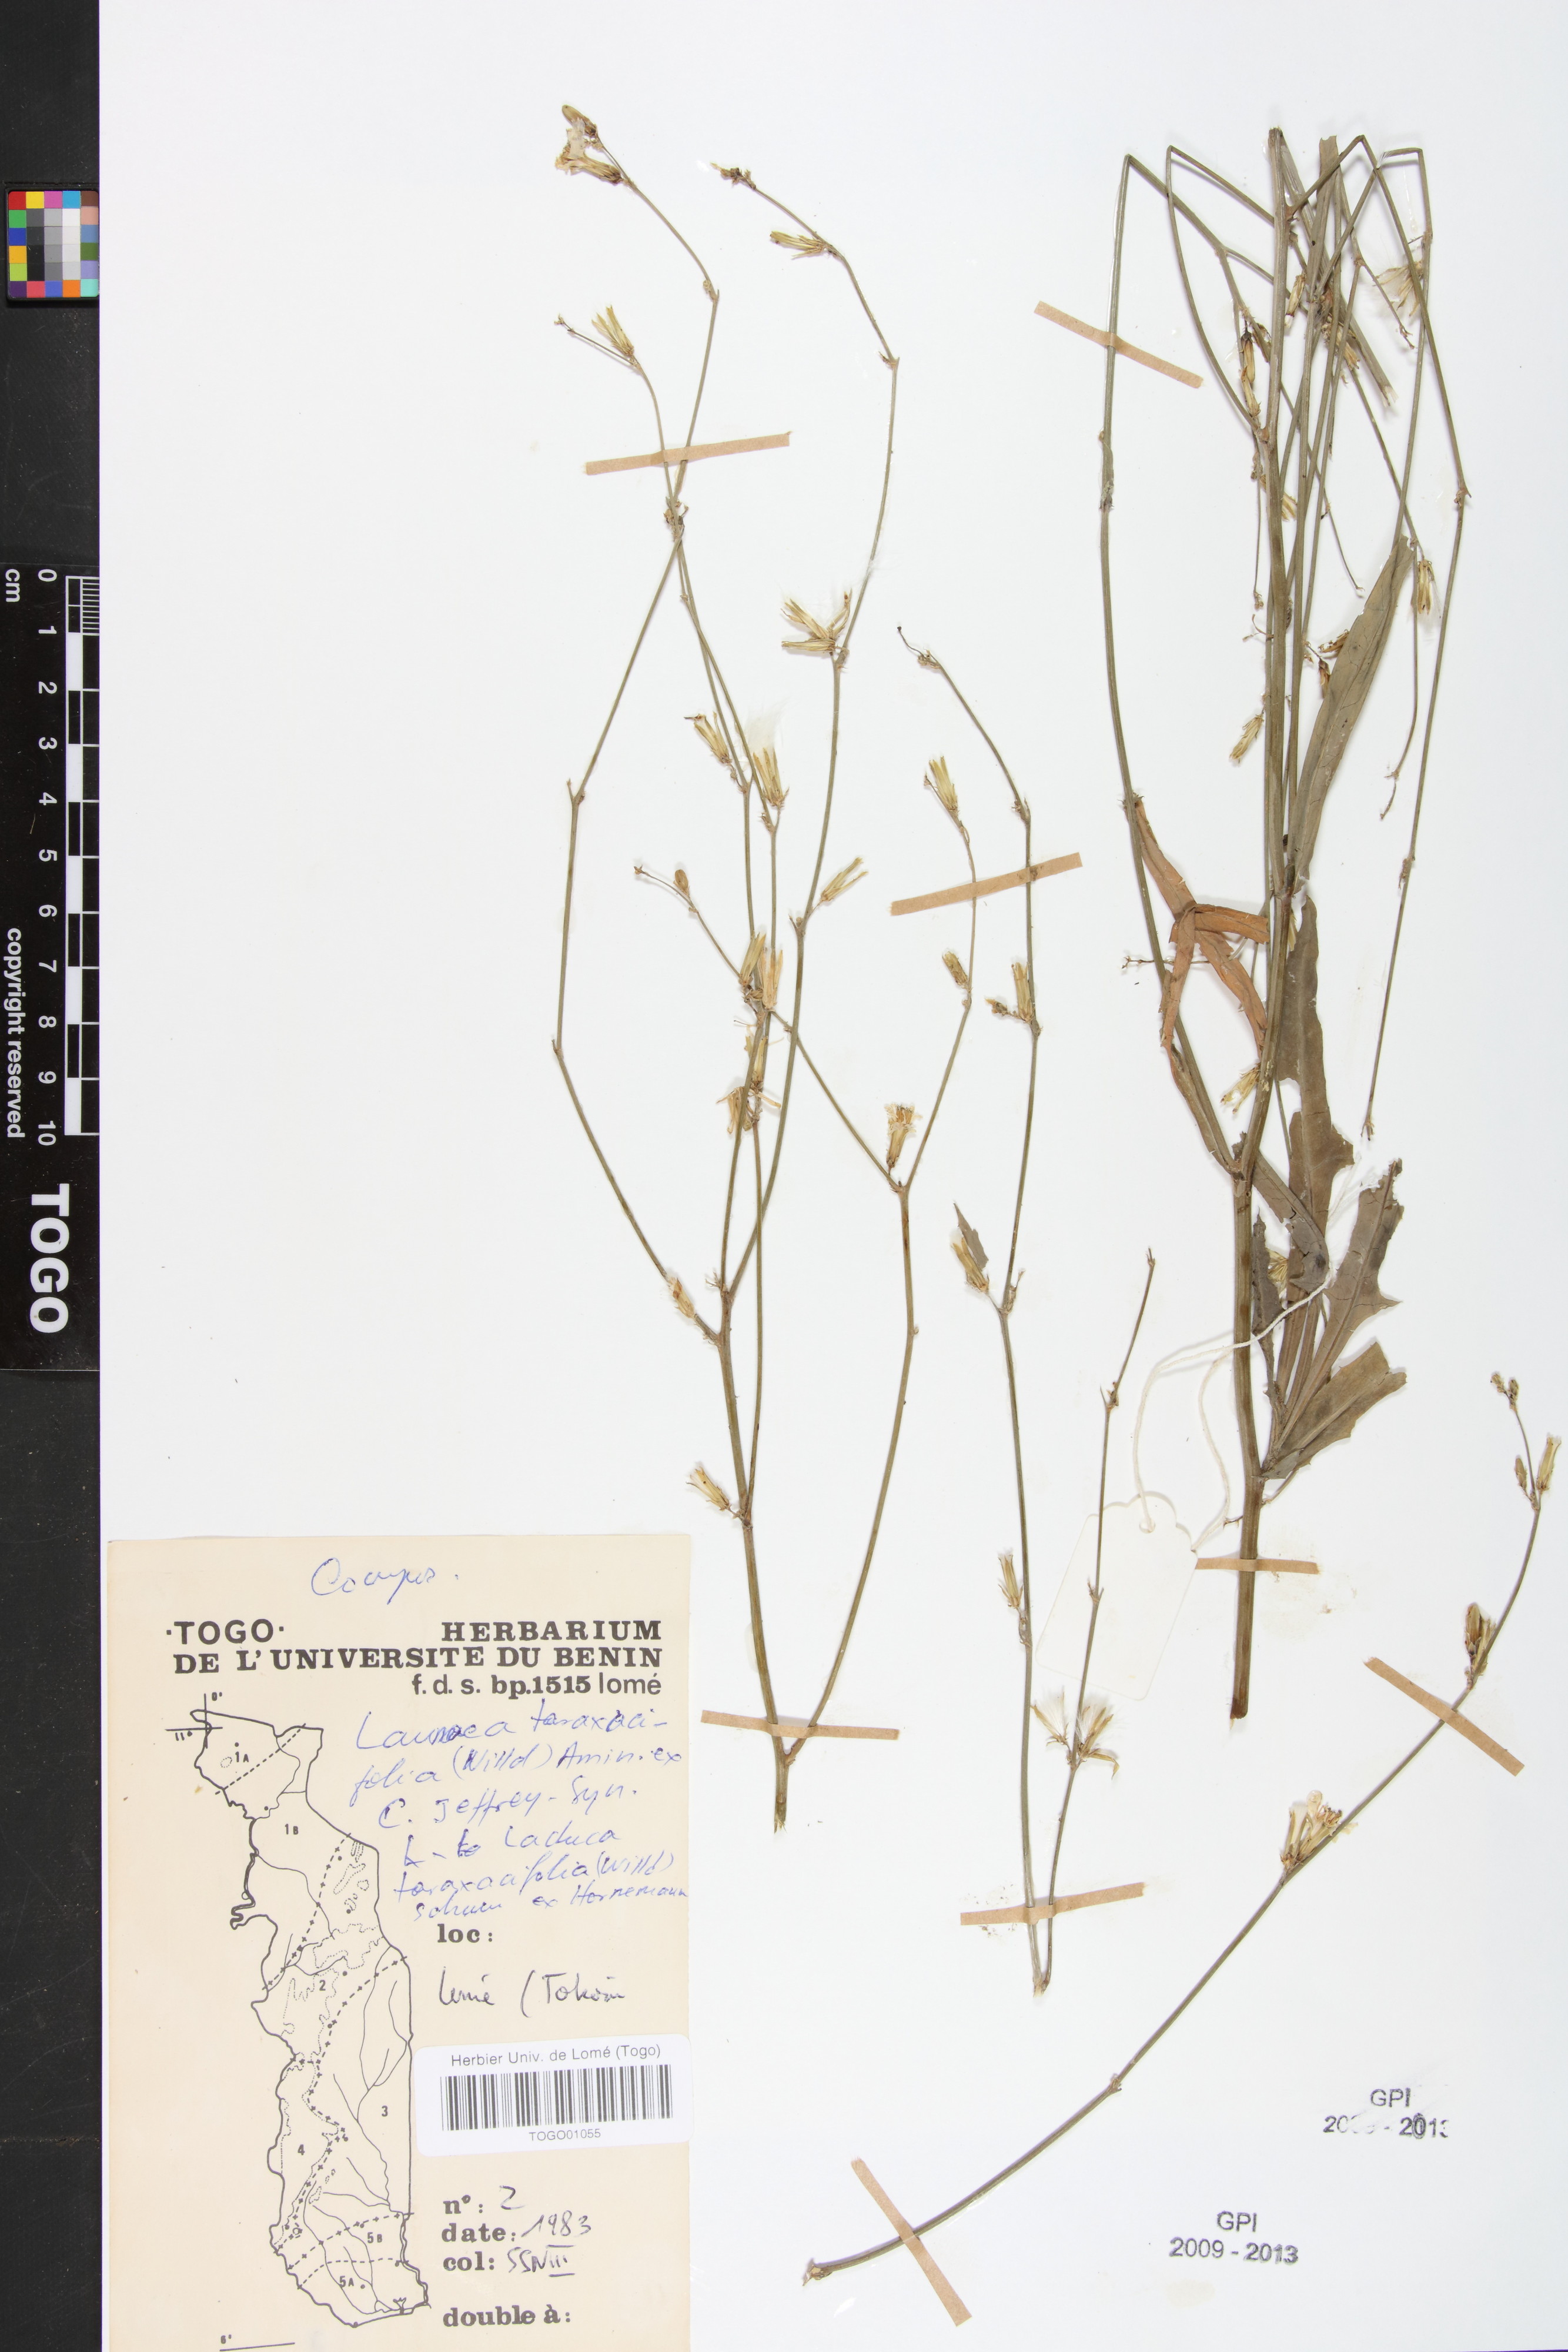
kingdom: Plantae
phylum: Tracheophyta
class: Magnoliopsida
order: Asterales
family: Asteraceae
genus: Launaea
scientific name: Launaea taraxacifolia
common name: African-lettuce
